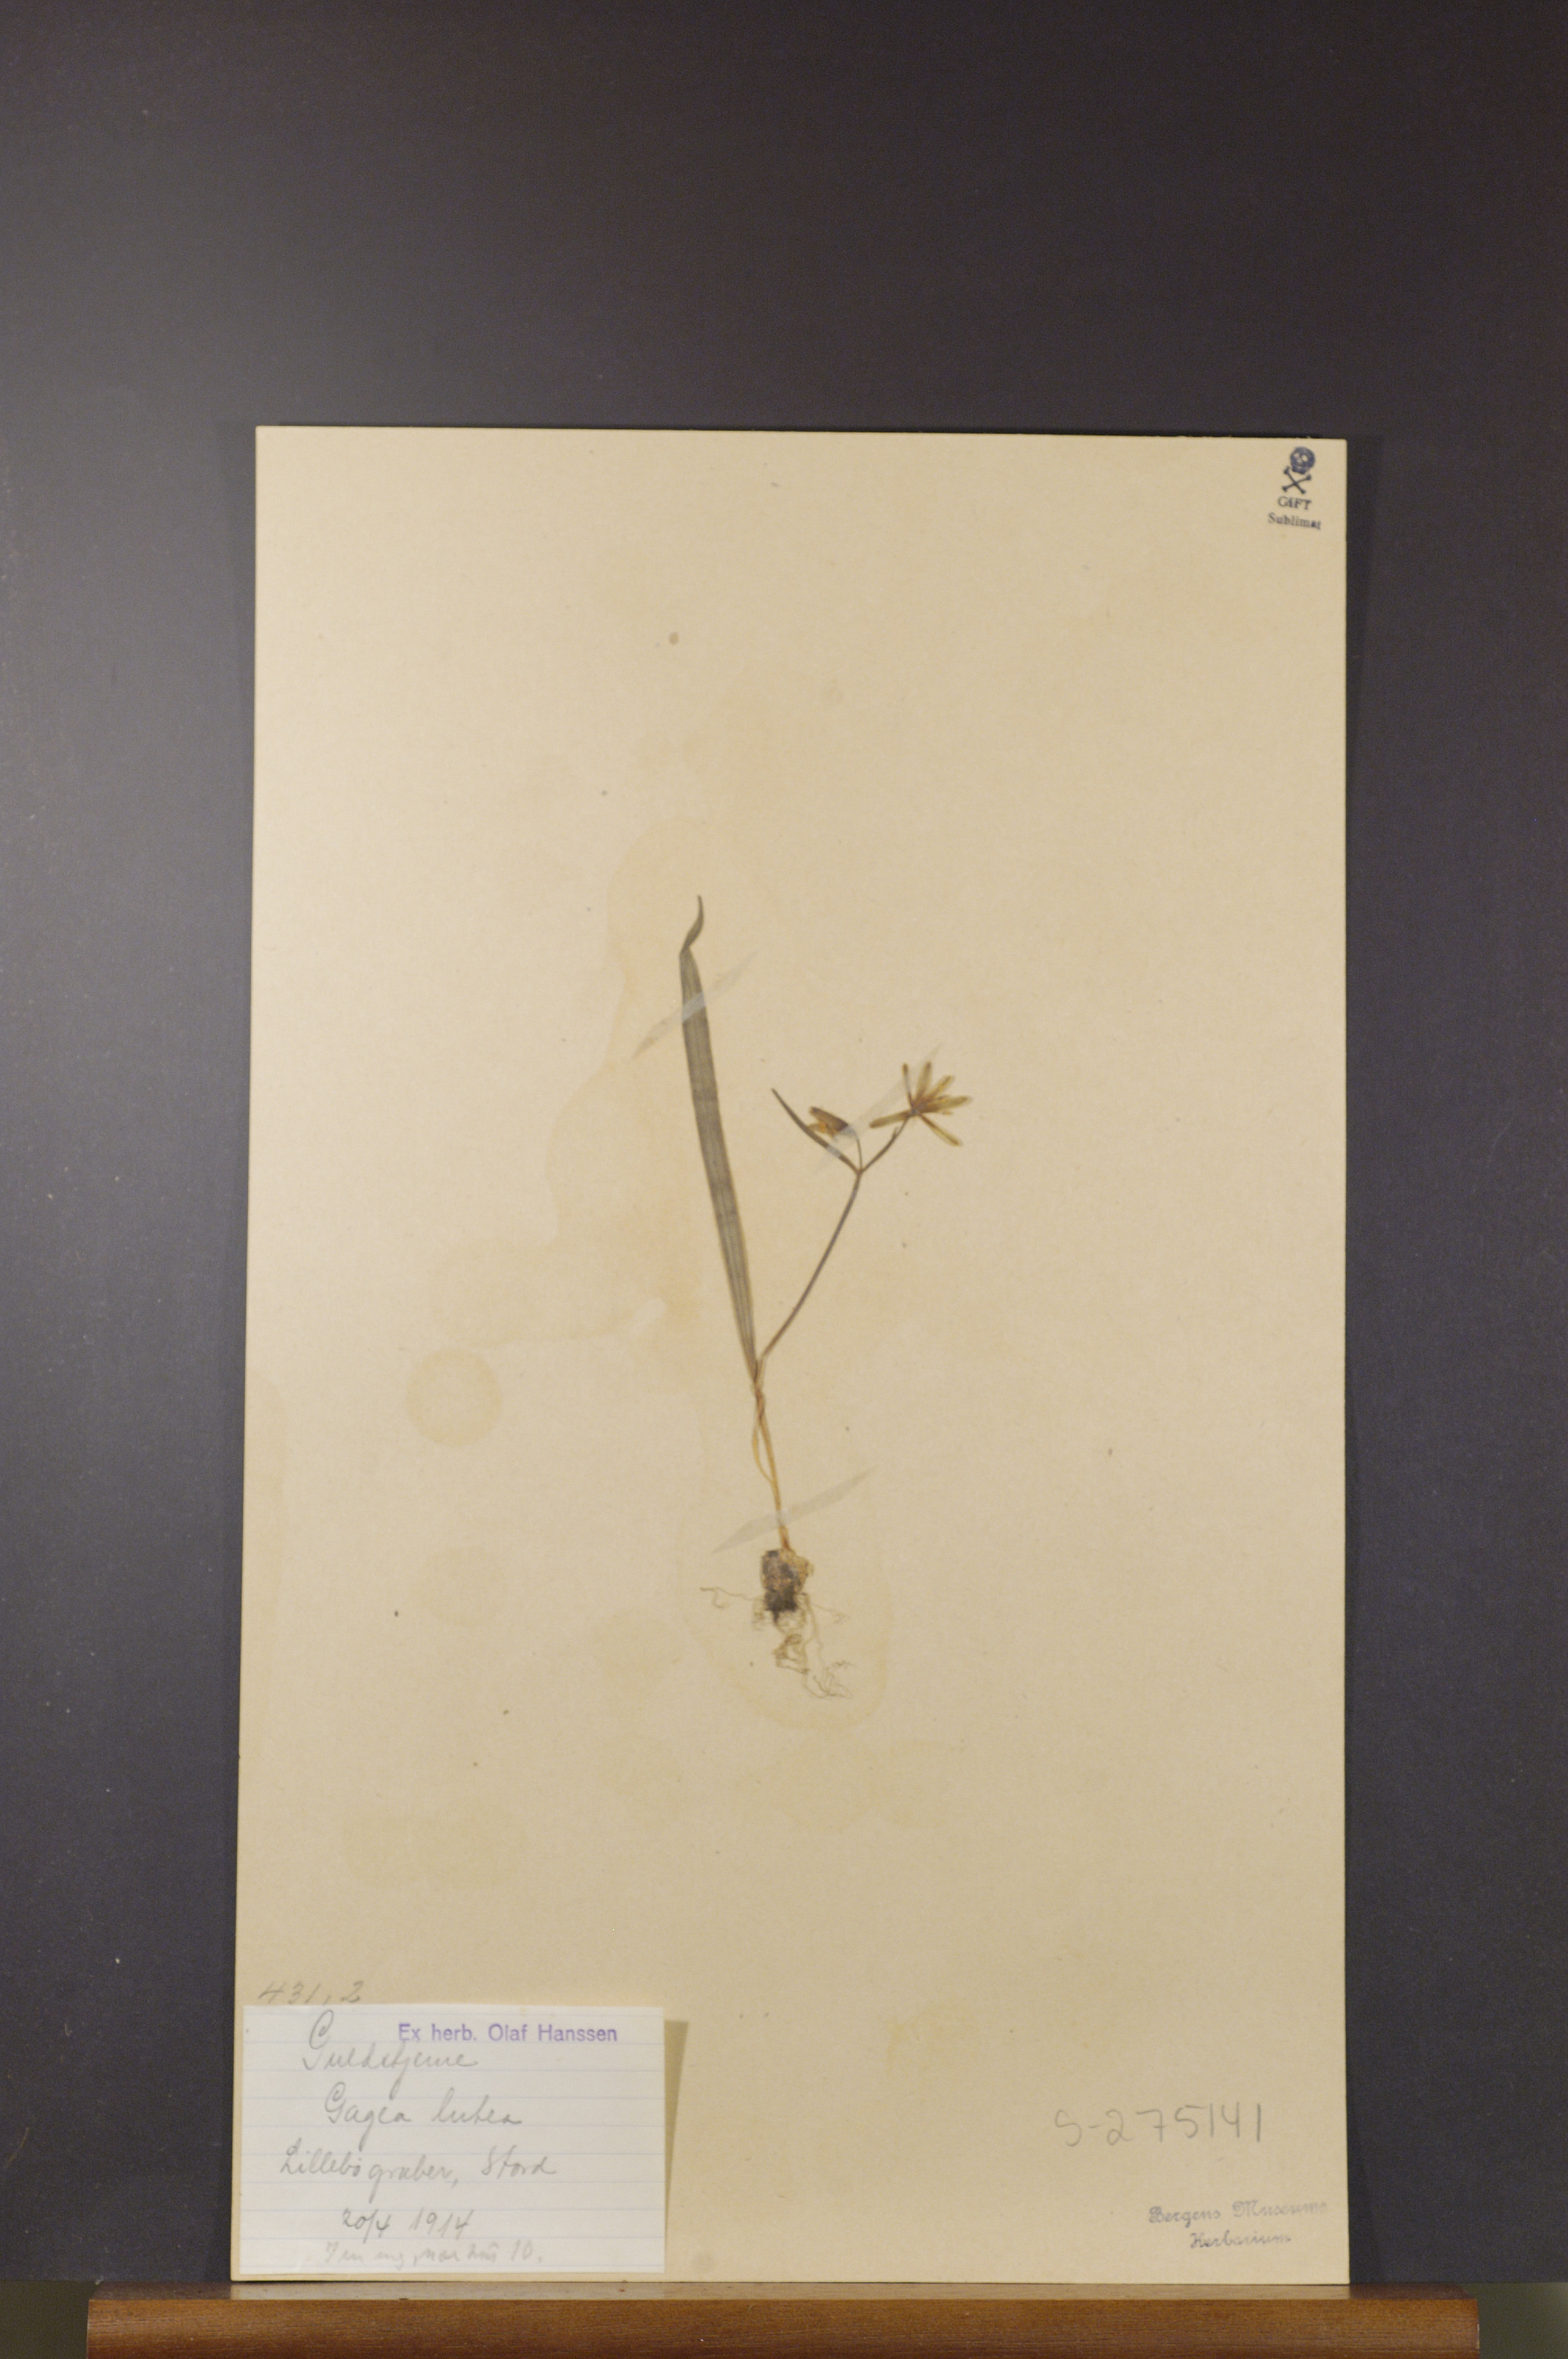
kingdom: Plantae
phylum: Tracheophyta
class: Liliopsida
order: Liliales
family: Liliaceae
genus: Gagea
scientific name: Gagea lutea
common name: Yellow star-of-bethlehem
